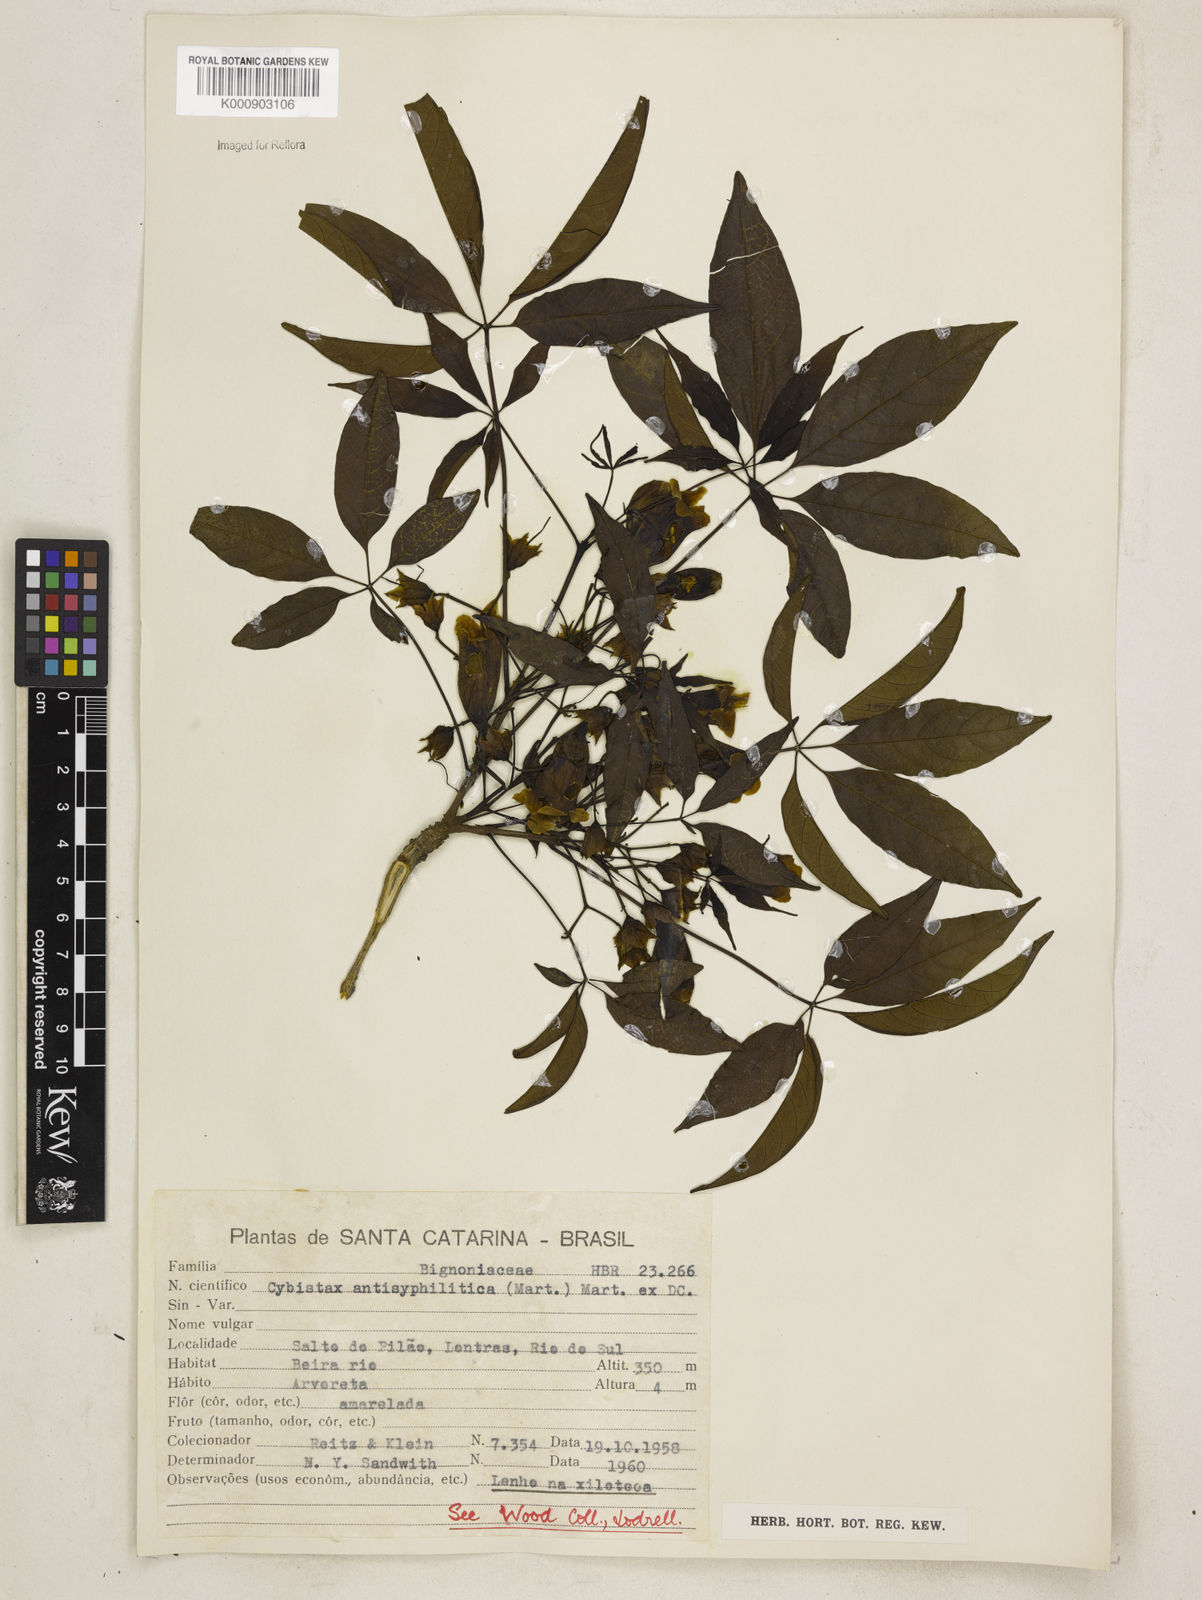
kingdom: Plantae
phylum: Tracheophyta
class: Magnoliopsida
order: Lamiales
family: Bignoniaceae
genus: Cybistax
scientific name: Cybistax antisyphilitica
